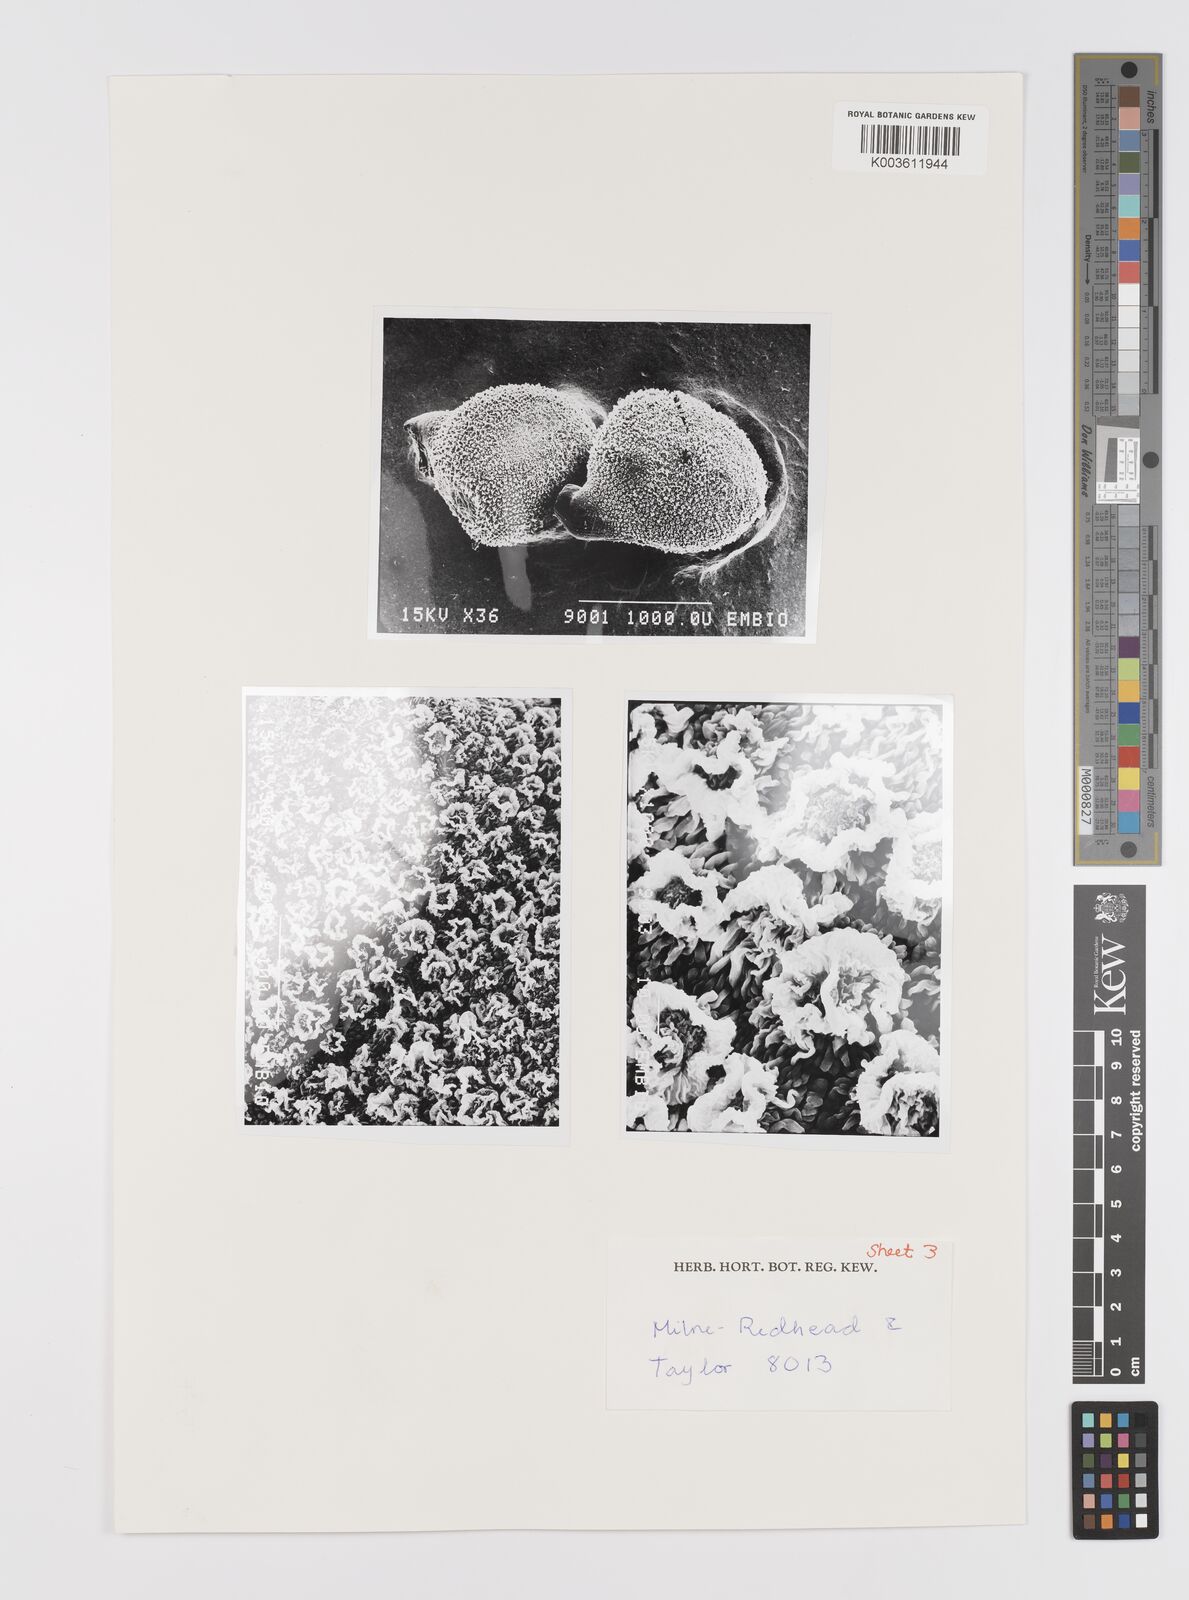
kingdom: Plantae
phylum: Tracheophyta
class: Liliopsida
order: Asparagales
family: Hypoxidaceae
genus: Hypoxis
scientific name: Hypoxis goetzei
